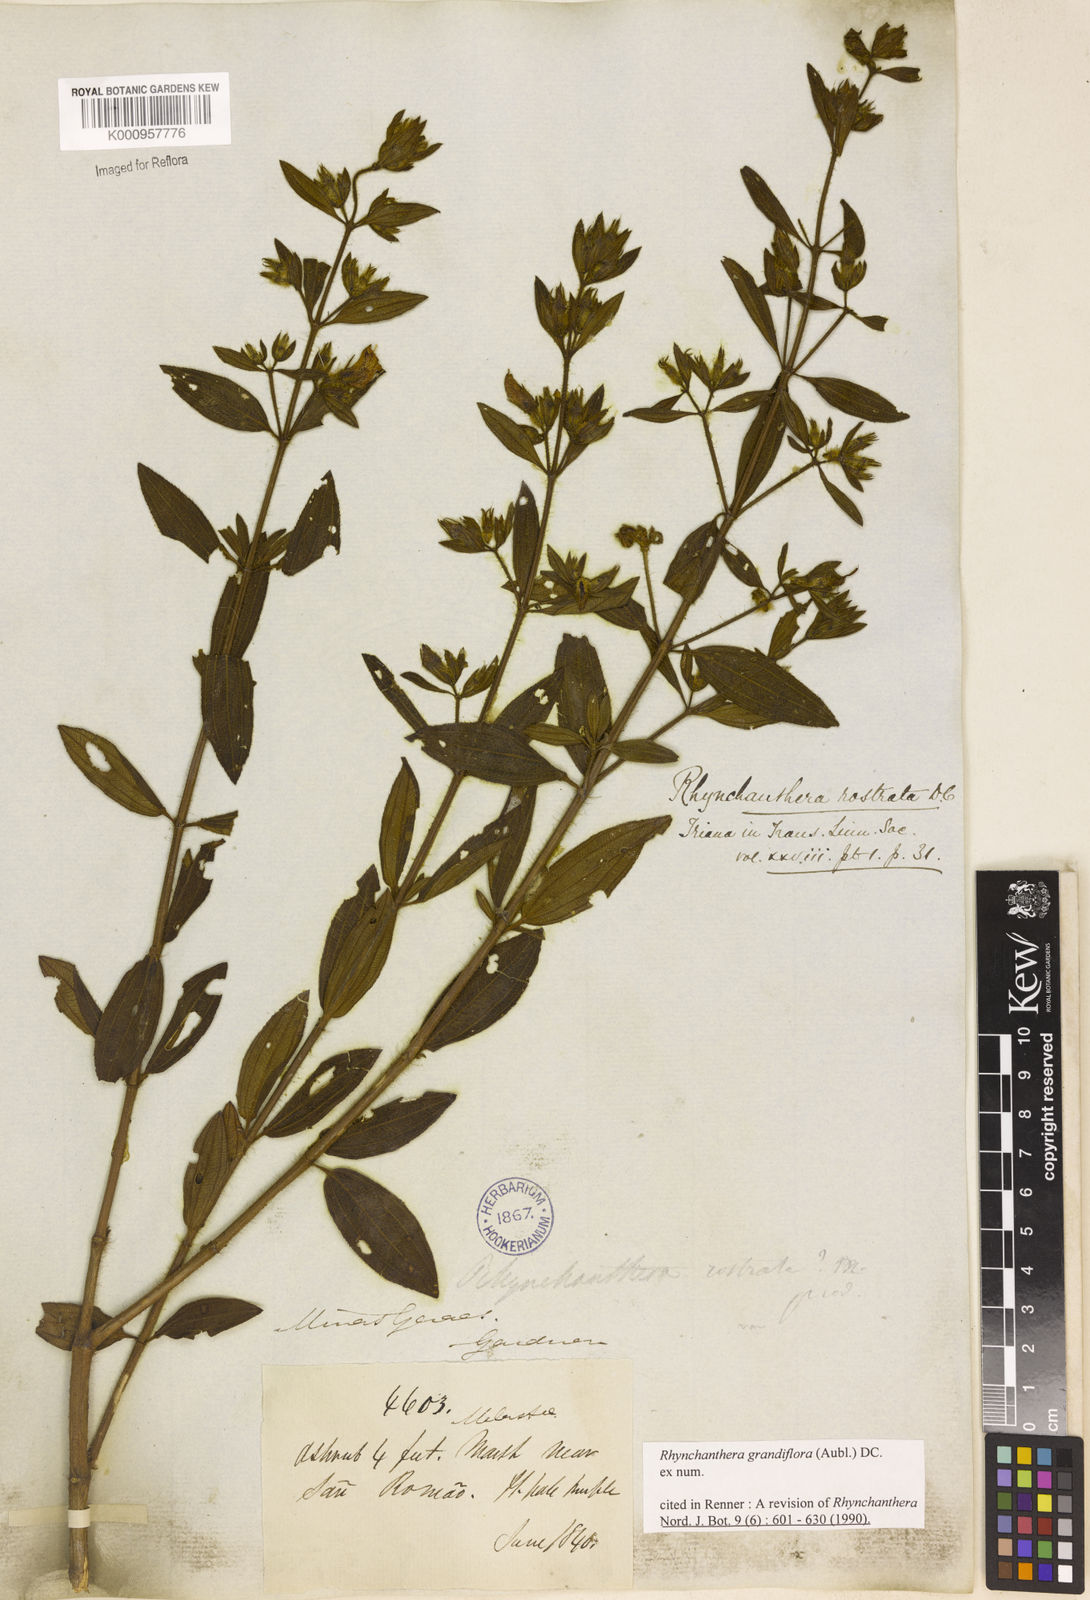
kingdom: Plantae
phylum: Tracheophyta
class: Magnoliopsida
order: Myrtales
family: Melastomataceae
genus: Rhynchanthera
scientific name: Rhynchanthera grandiflora
